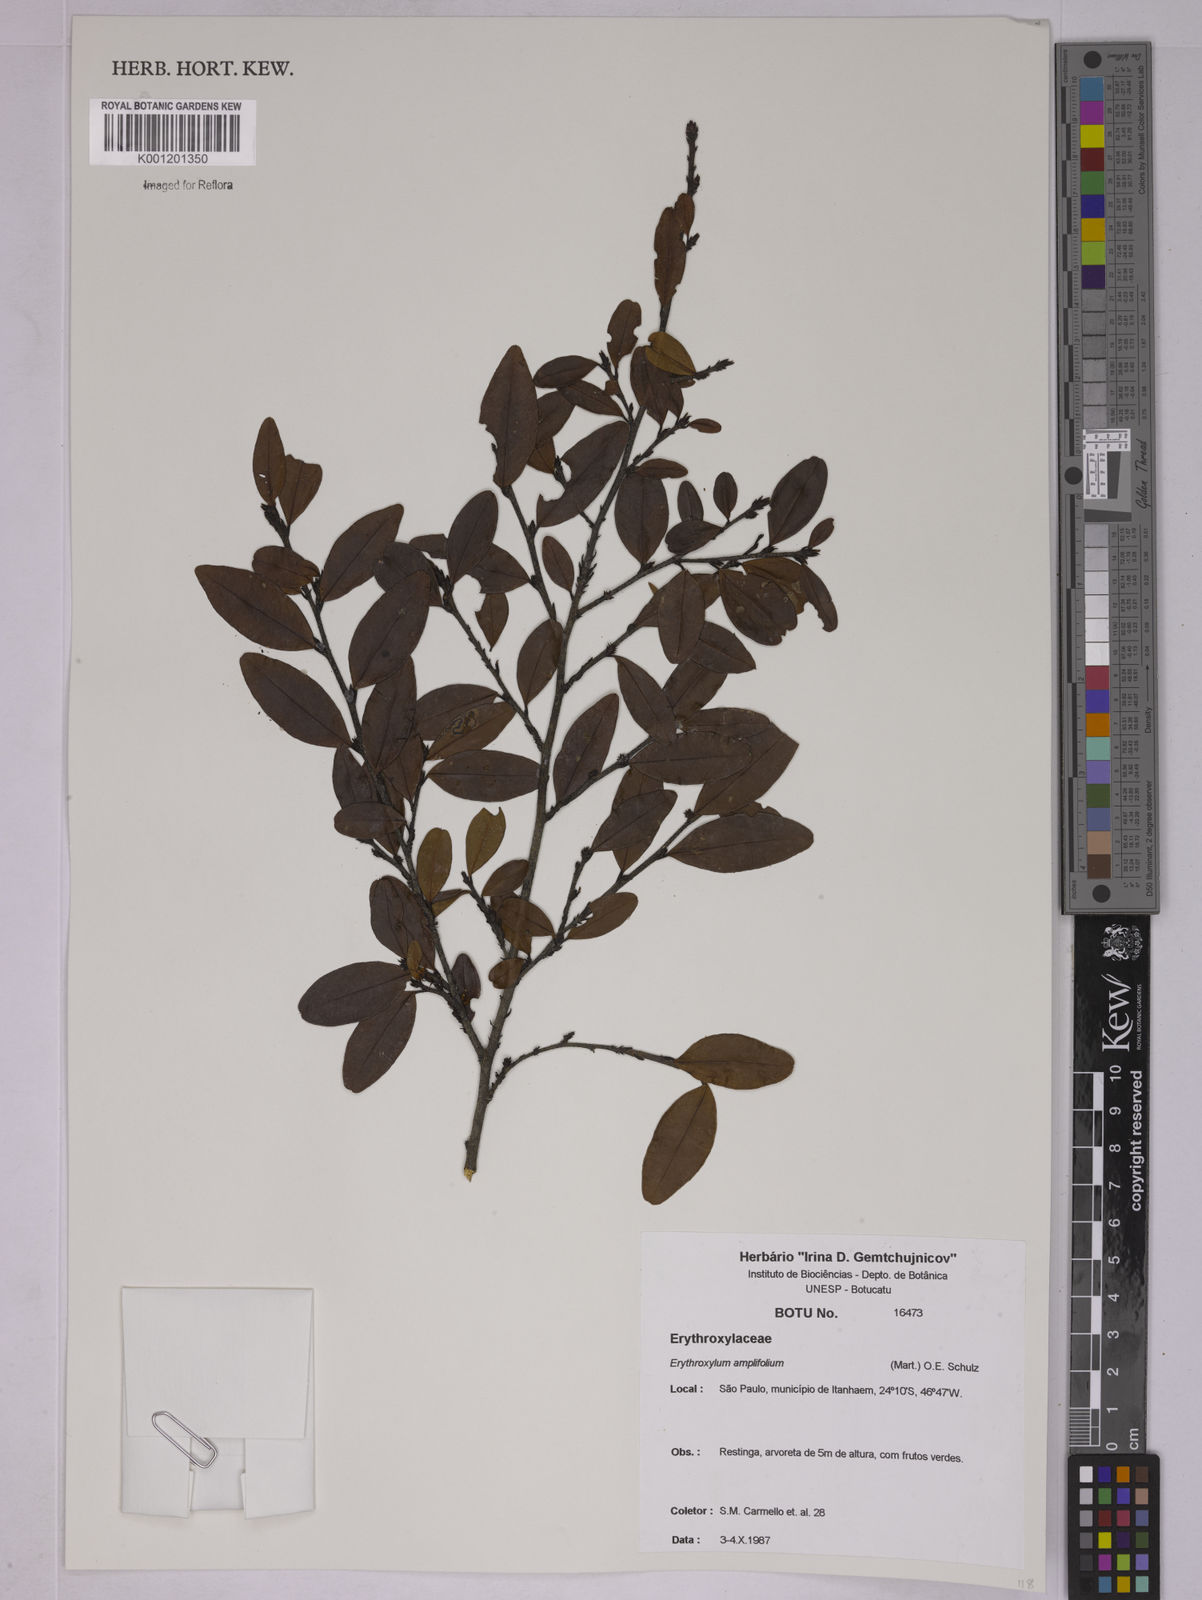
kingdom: Plantae
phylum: Tracheophyta
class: Magnoliopsida
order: Malpighiales
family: Erythroxylaceae
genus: Erythroxylum
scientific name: Erythroxylum
